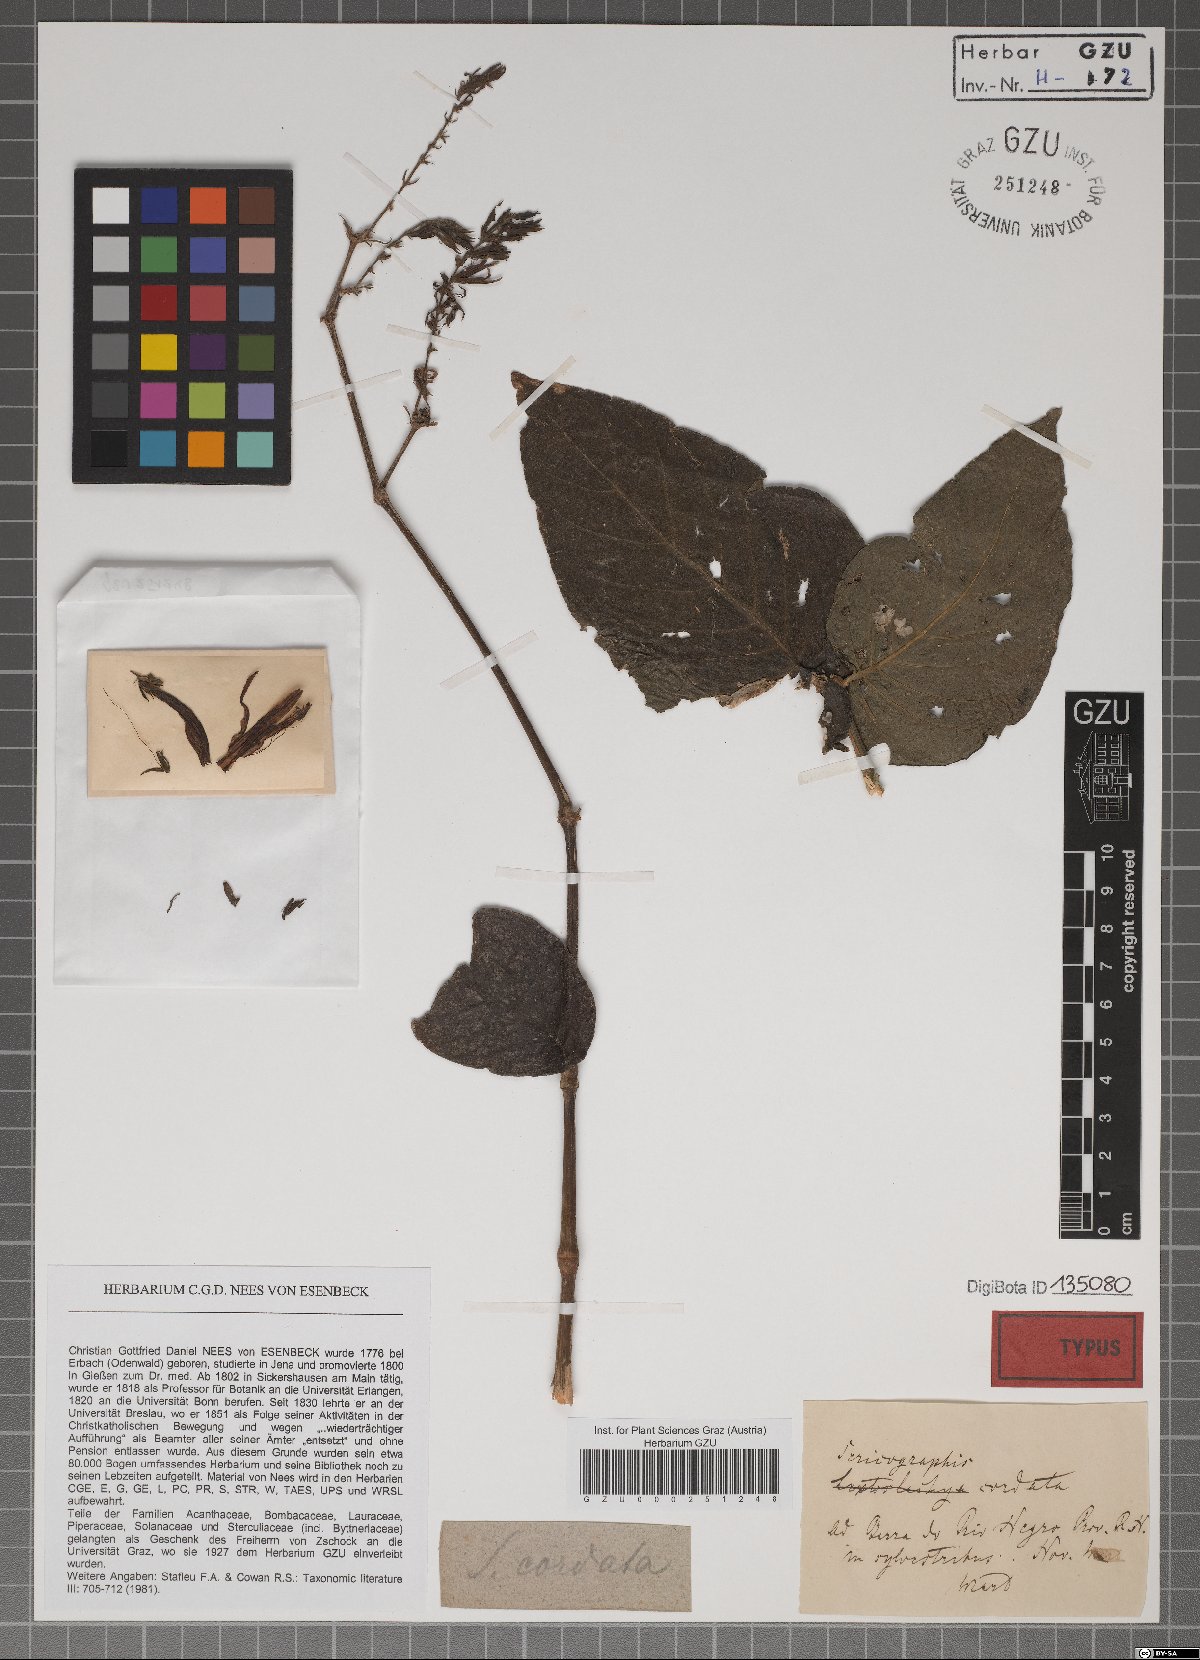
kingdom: Plantae
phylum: Tracheophyta
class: Magnoliopsida
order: Lamiales
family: Acanthaceae
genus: Justicia
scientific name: Justicia japurensis
